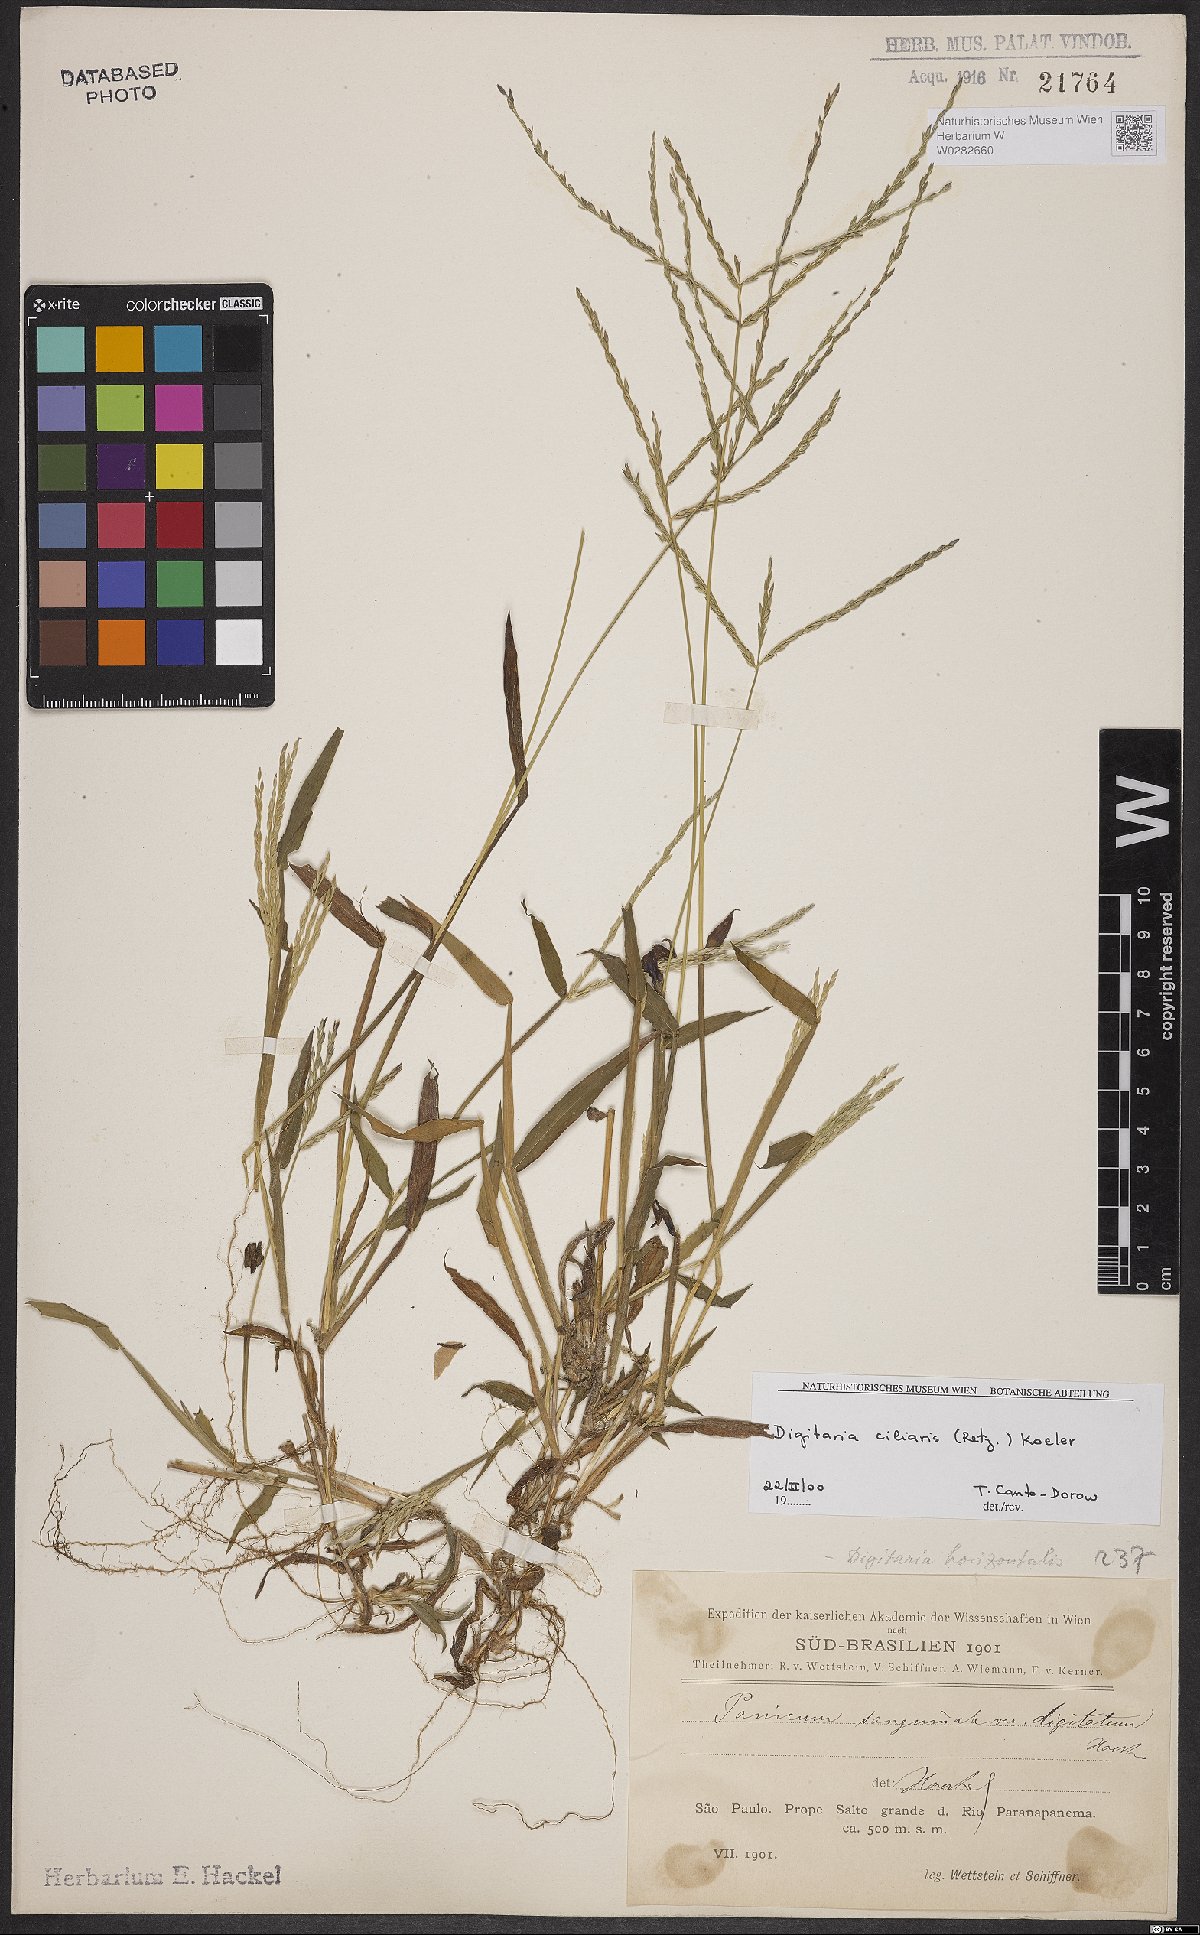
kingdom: Plantae
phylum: Tracheophyta
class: Liliopsida
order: Poales
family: Poaceae
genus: Digitaria
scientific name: Digitaria ciliaris
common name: Tropical finger-grass
